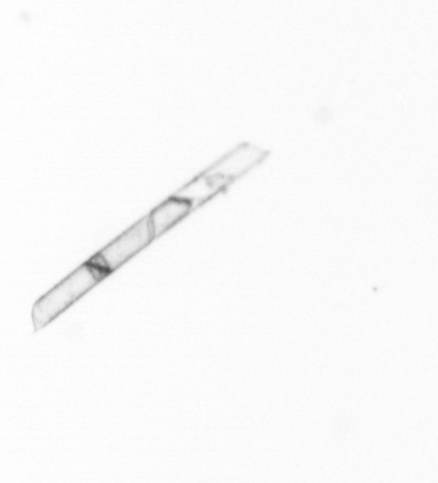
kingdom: Chromista
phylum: Ochrophyta
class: Bacillariophyceae
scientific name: Bacillariophyceae
